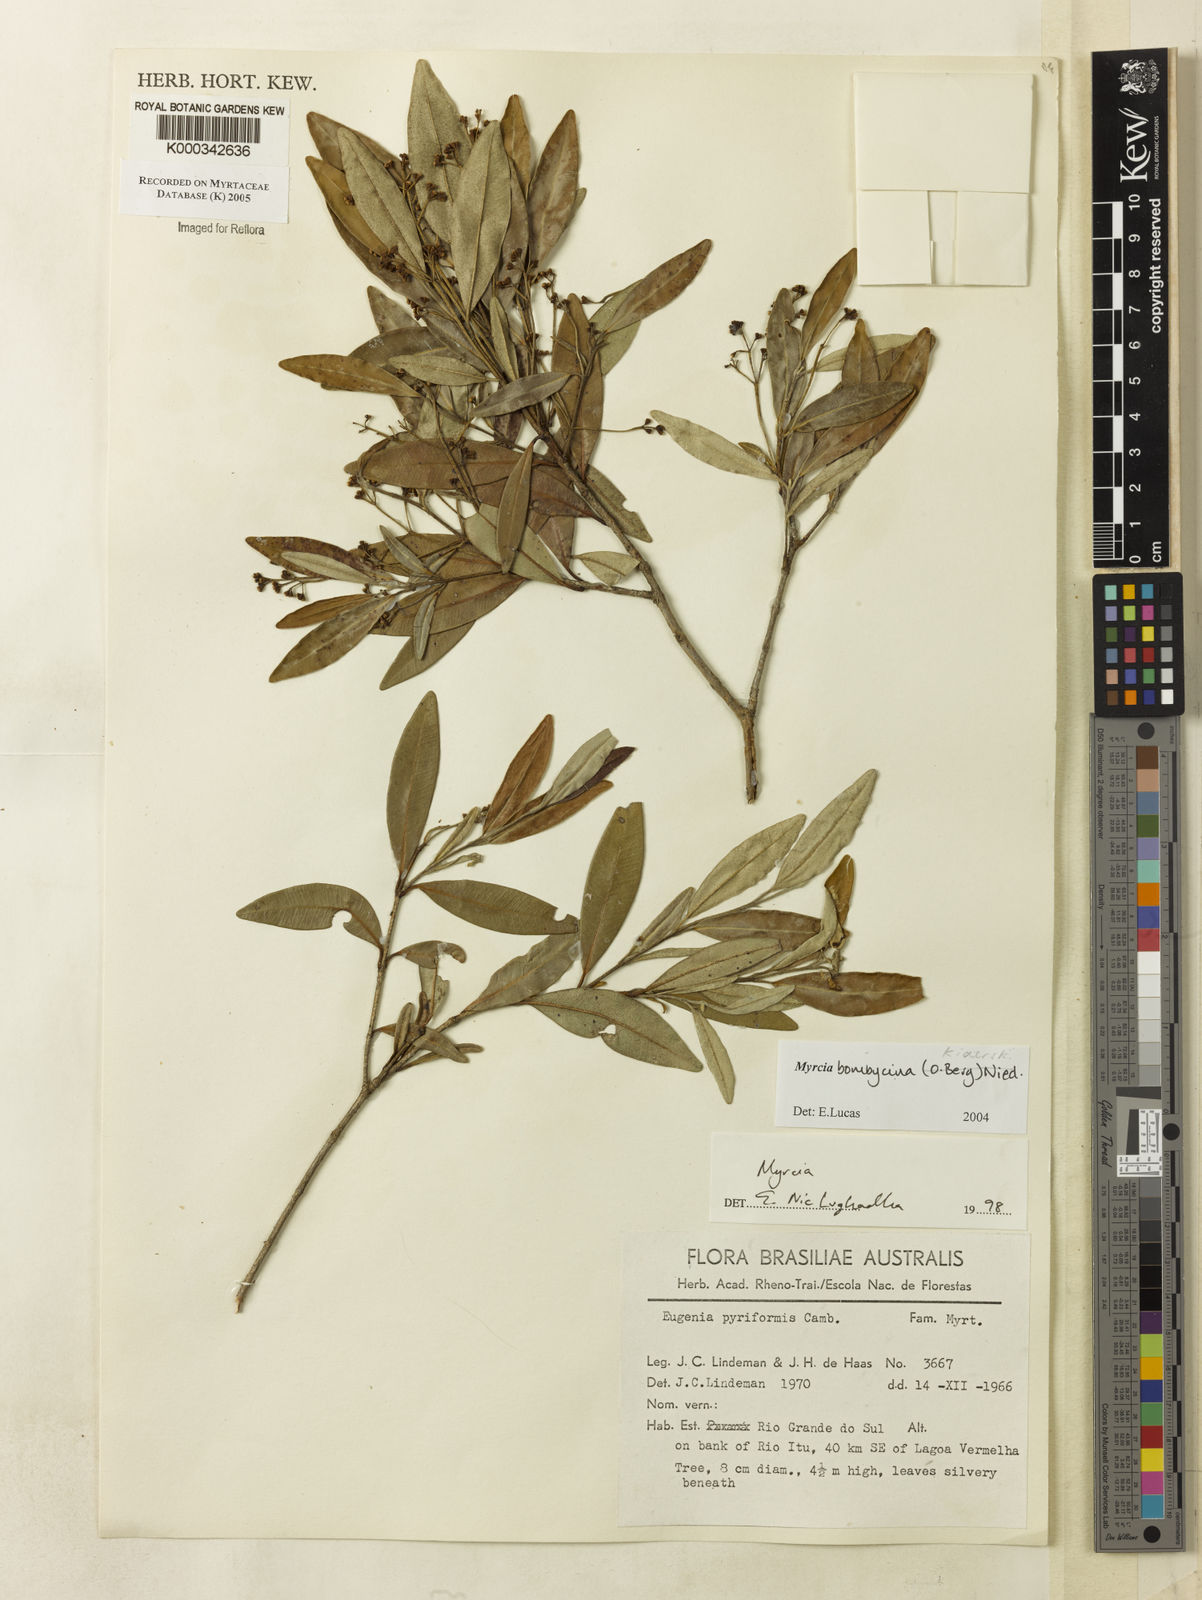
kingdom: Plantae
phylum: Tracheophyta
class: Magnoliopsida
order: Myrtales
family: Myrtaceae
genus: Myrcia
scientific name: Myrcia
